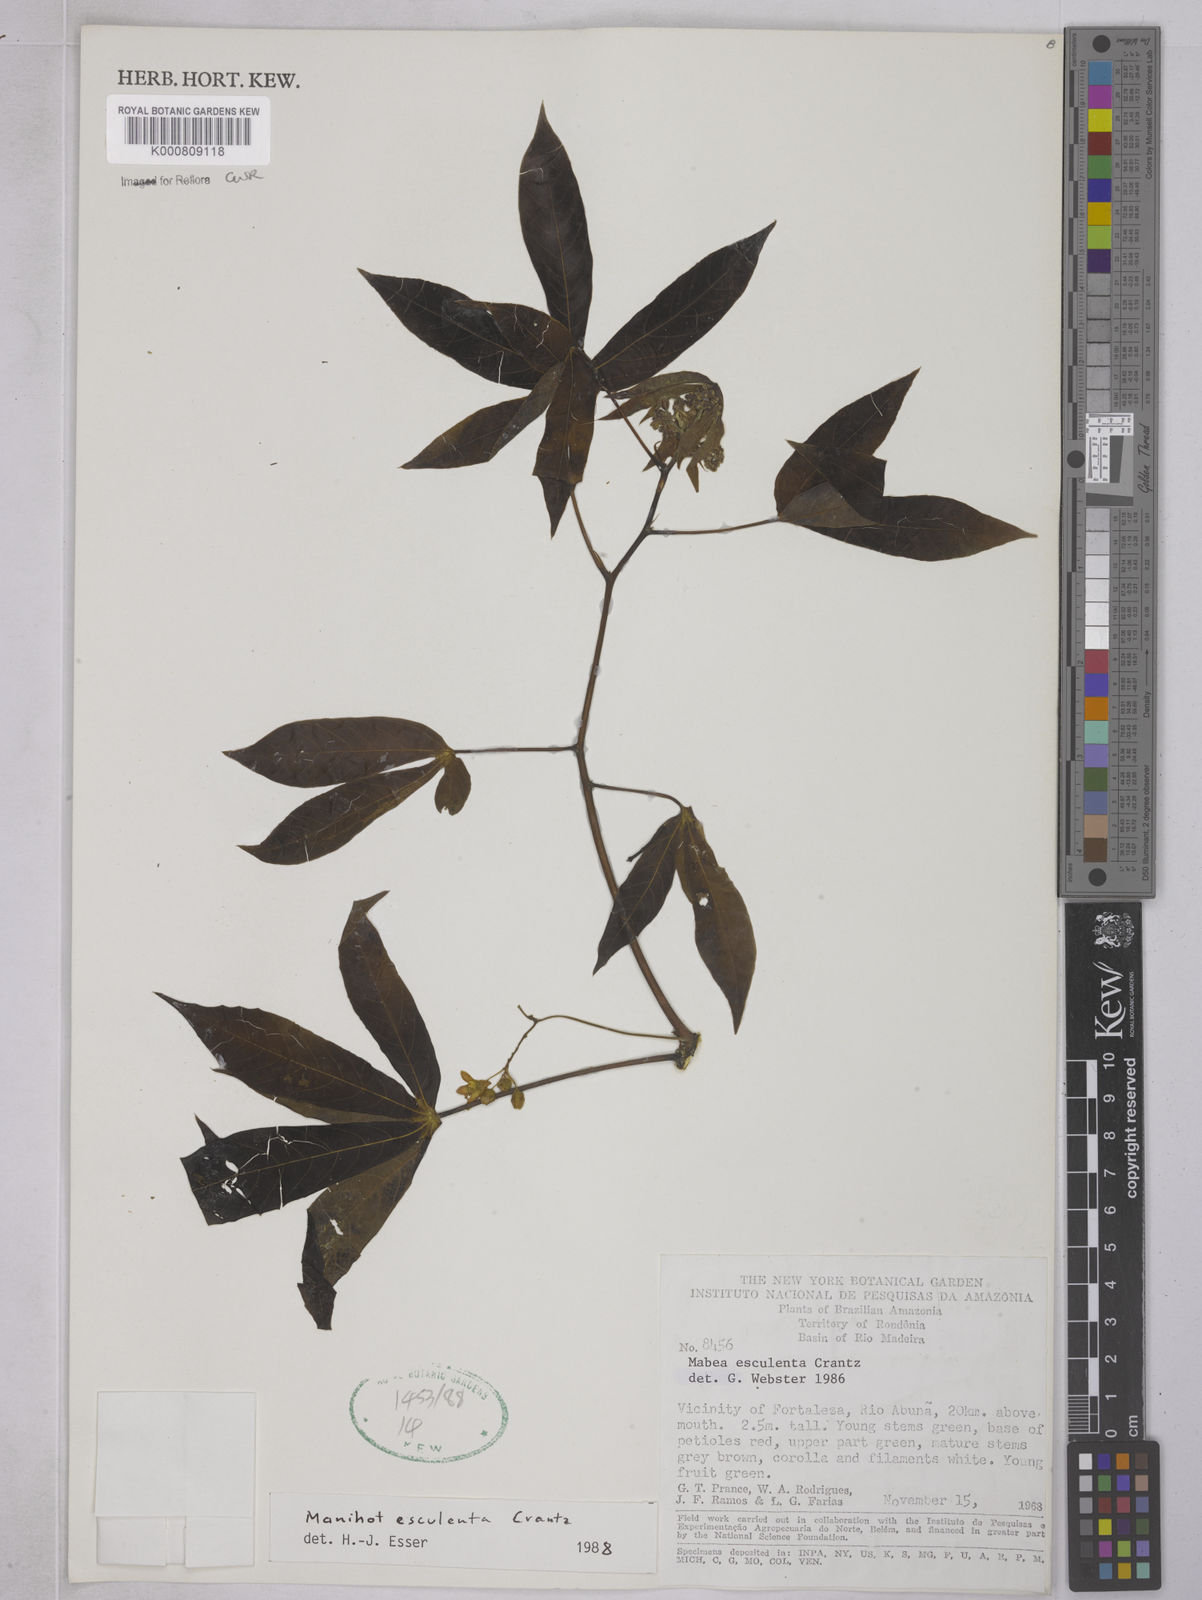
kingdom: Plantae
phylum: Tracheophyta
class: Magnoliopsida
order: Malpighiales
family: Euphorbiaceae
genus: Manihot
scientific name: Manihot esculenta
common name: Cassava
